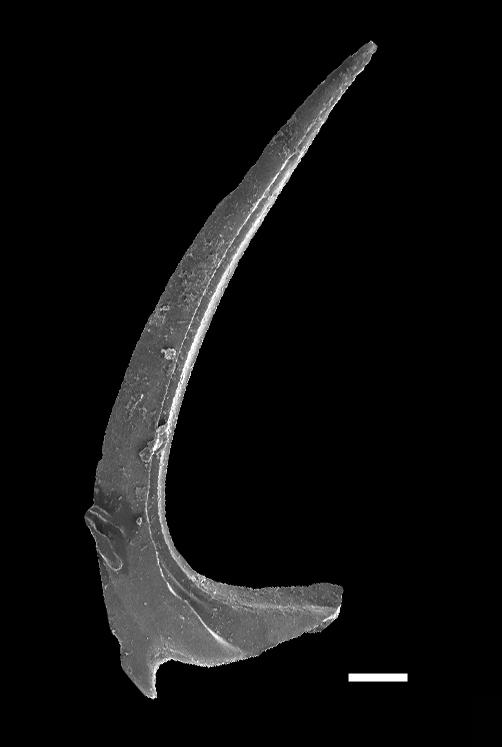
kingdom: Animalia
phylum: Chordata
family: Protopanderodontidae
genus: Protopanderodus
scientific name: Protopanderodus Phragmodus insculptus
